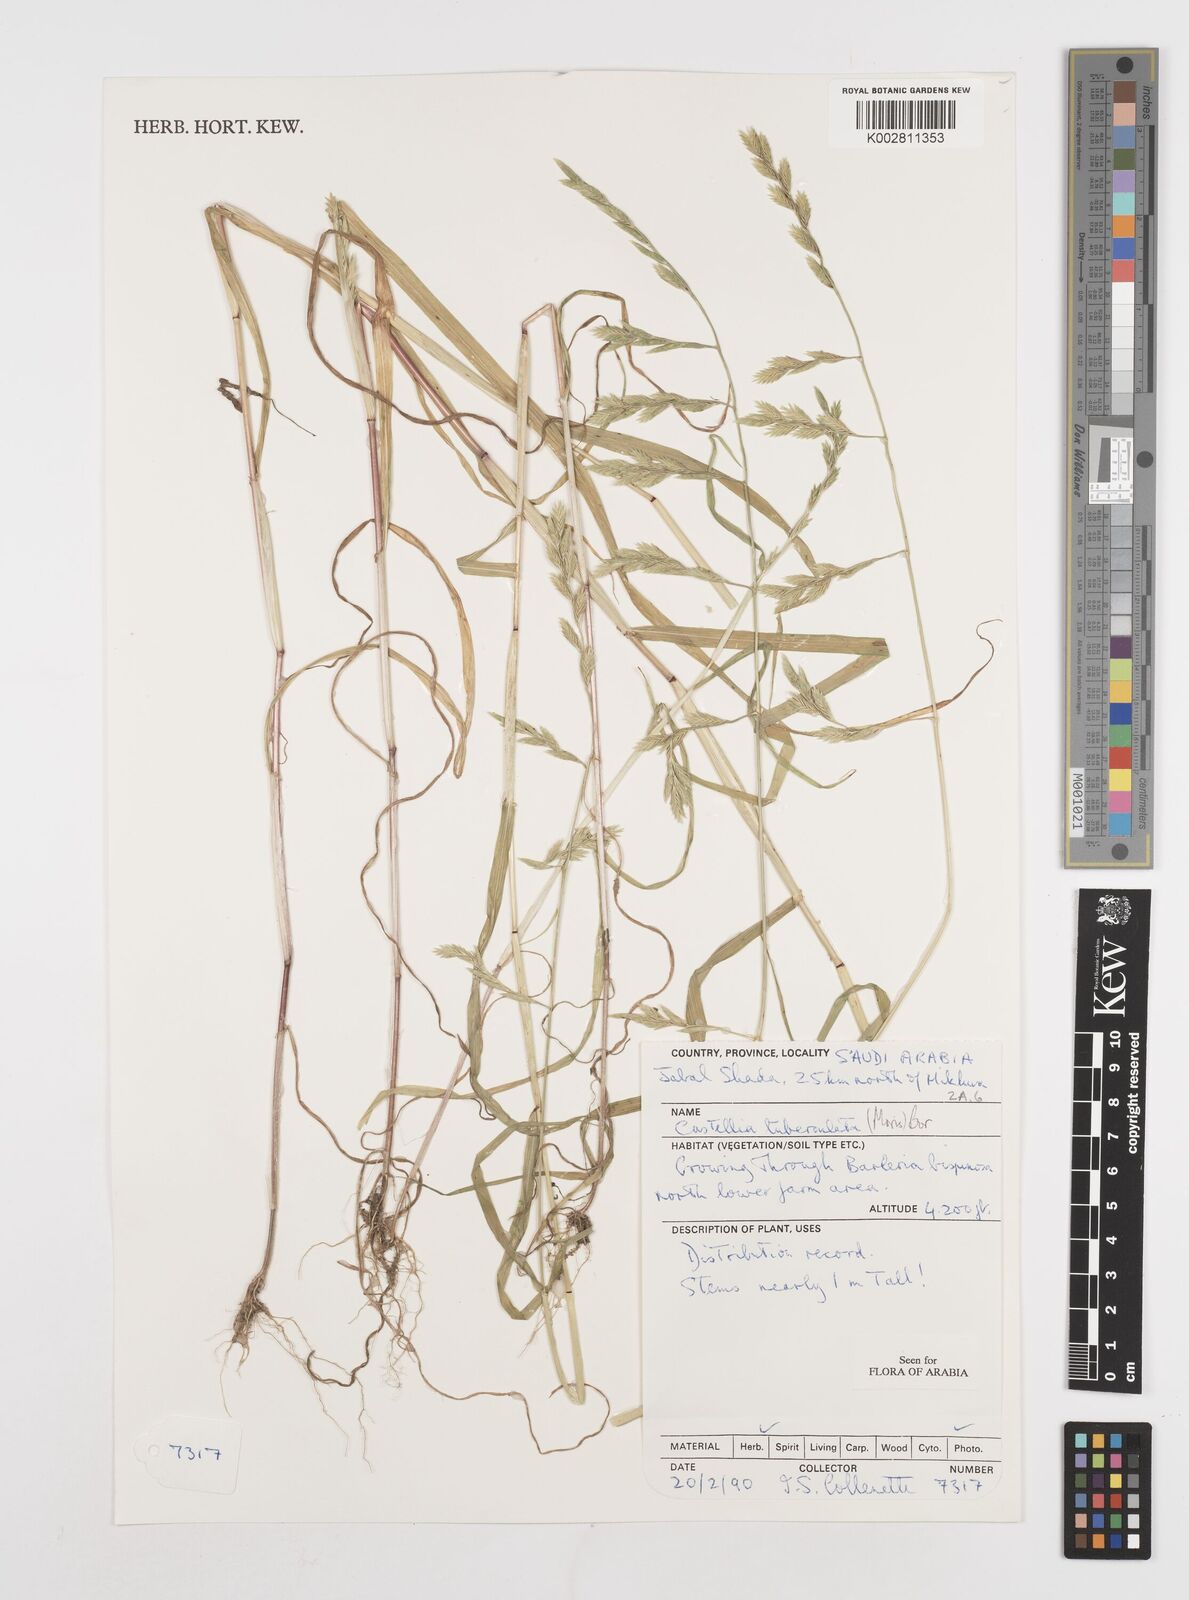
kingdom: Plantae
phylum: Tracheophyta
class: Liliopsida
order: Poales
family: Poaceae
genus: Castellia
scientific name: Castellia tuberculosa
